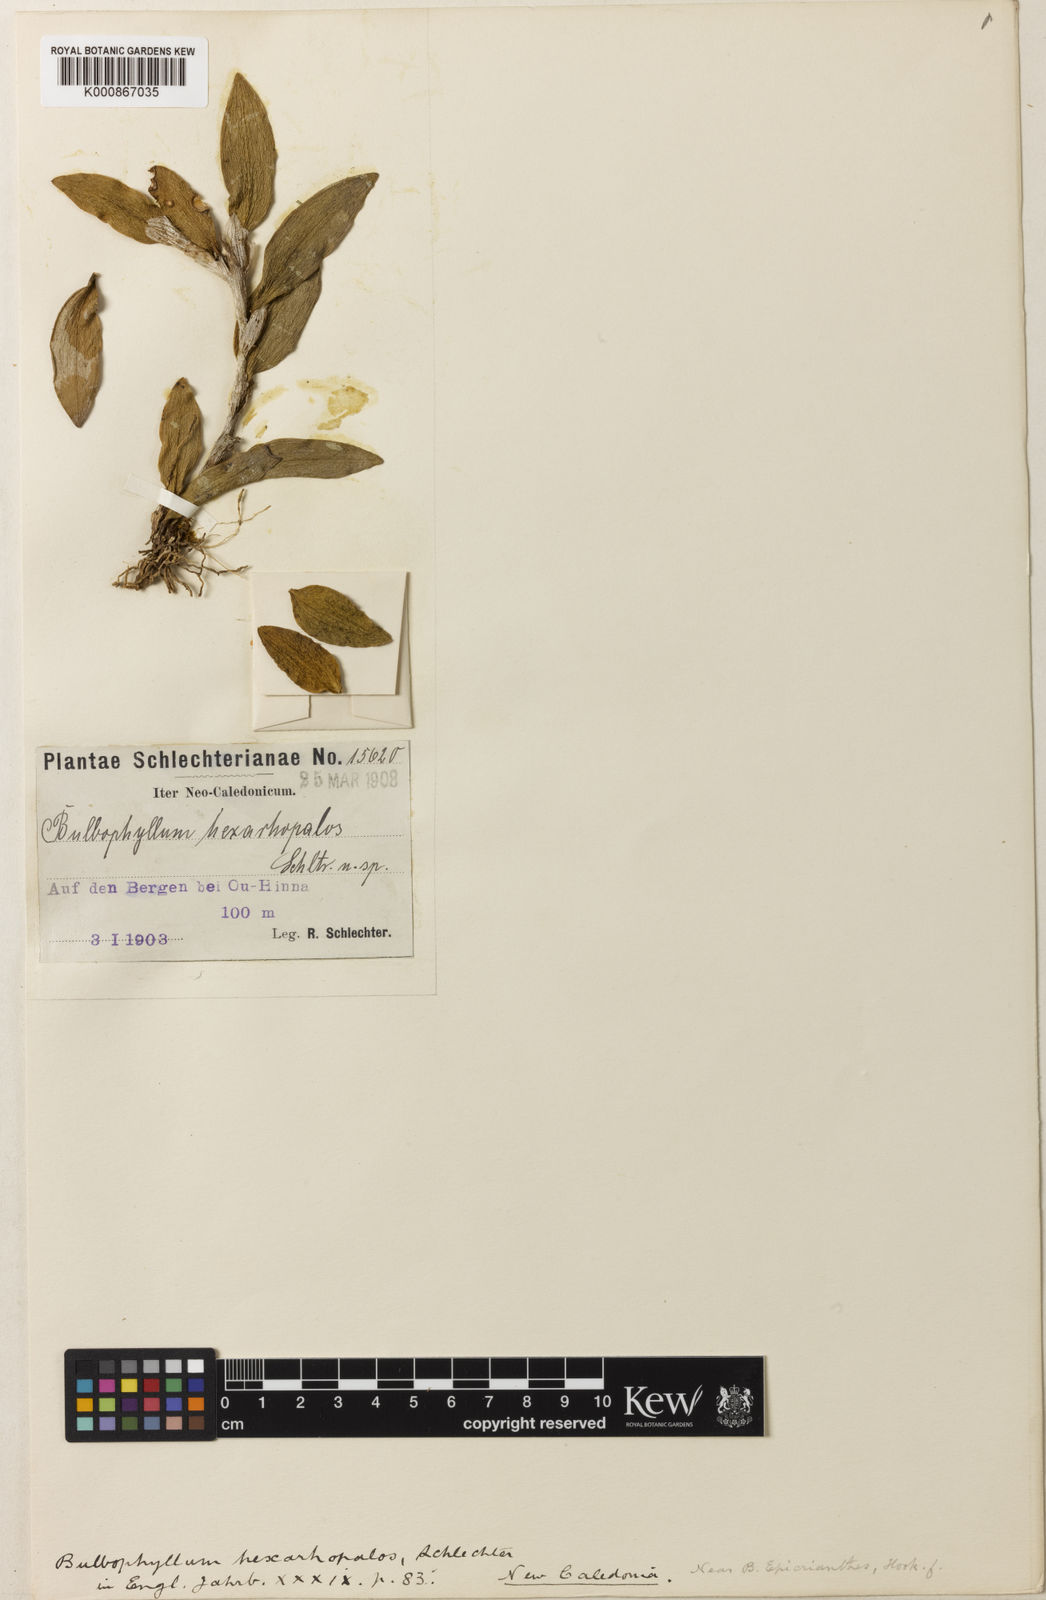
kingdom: Plantae
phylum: Tracheophyta
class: Liliopsida
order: Asparagales
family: Orchidaceae
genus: Bulbophyllum
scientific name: Bulbophyllum hexarhopalon
